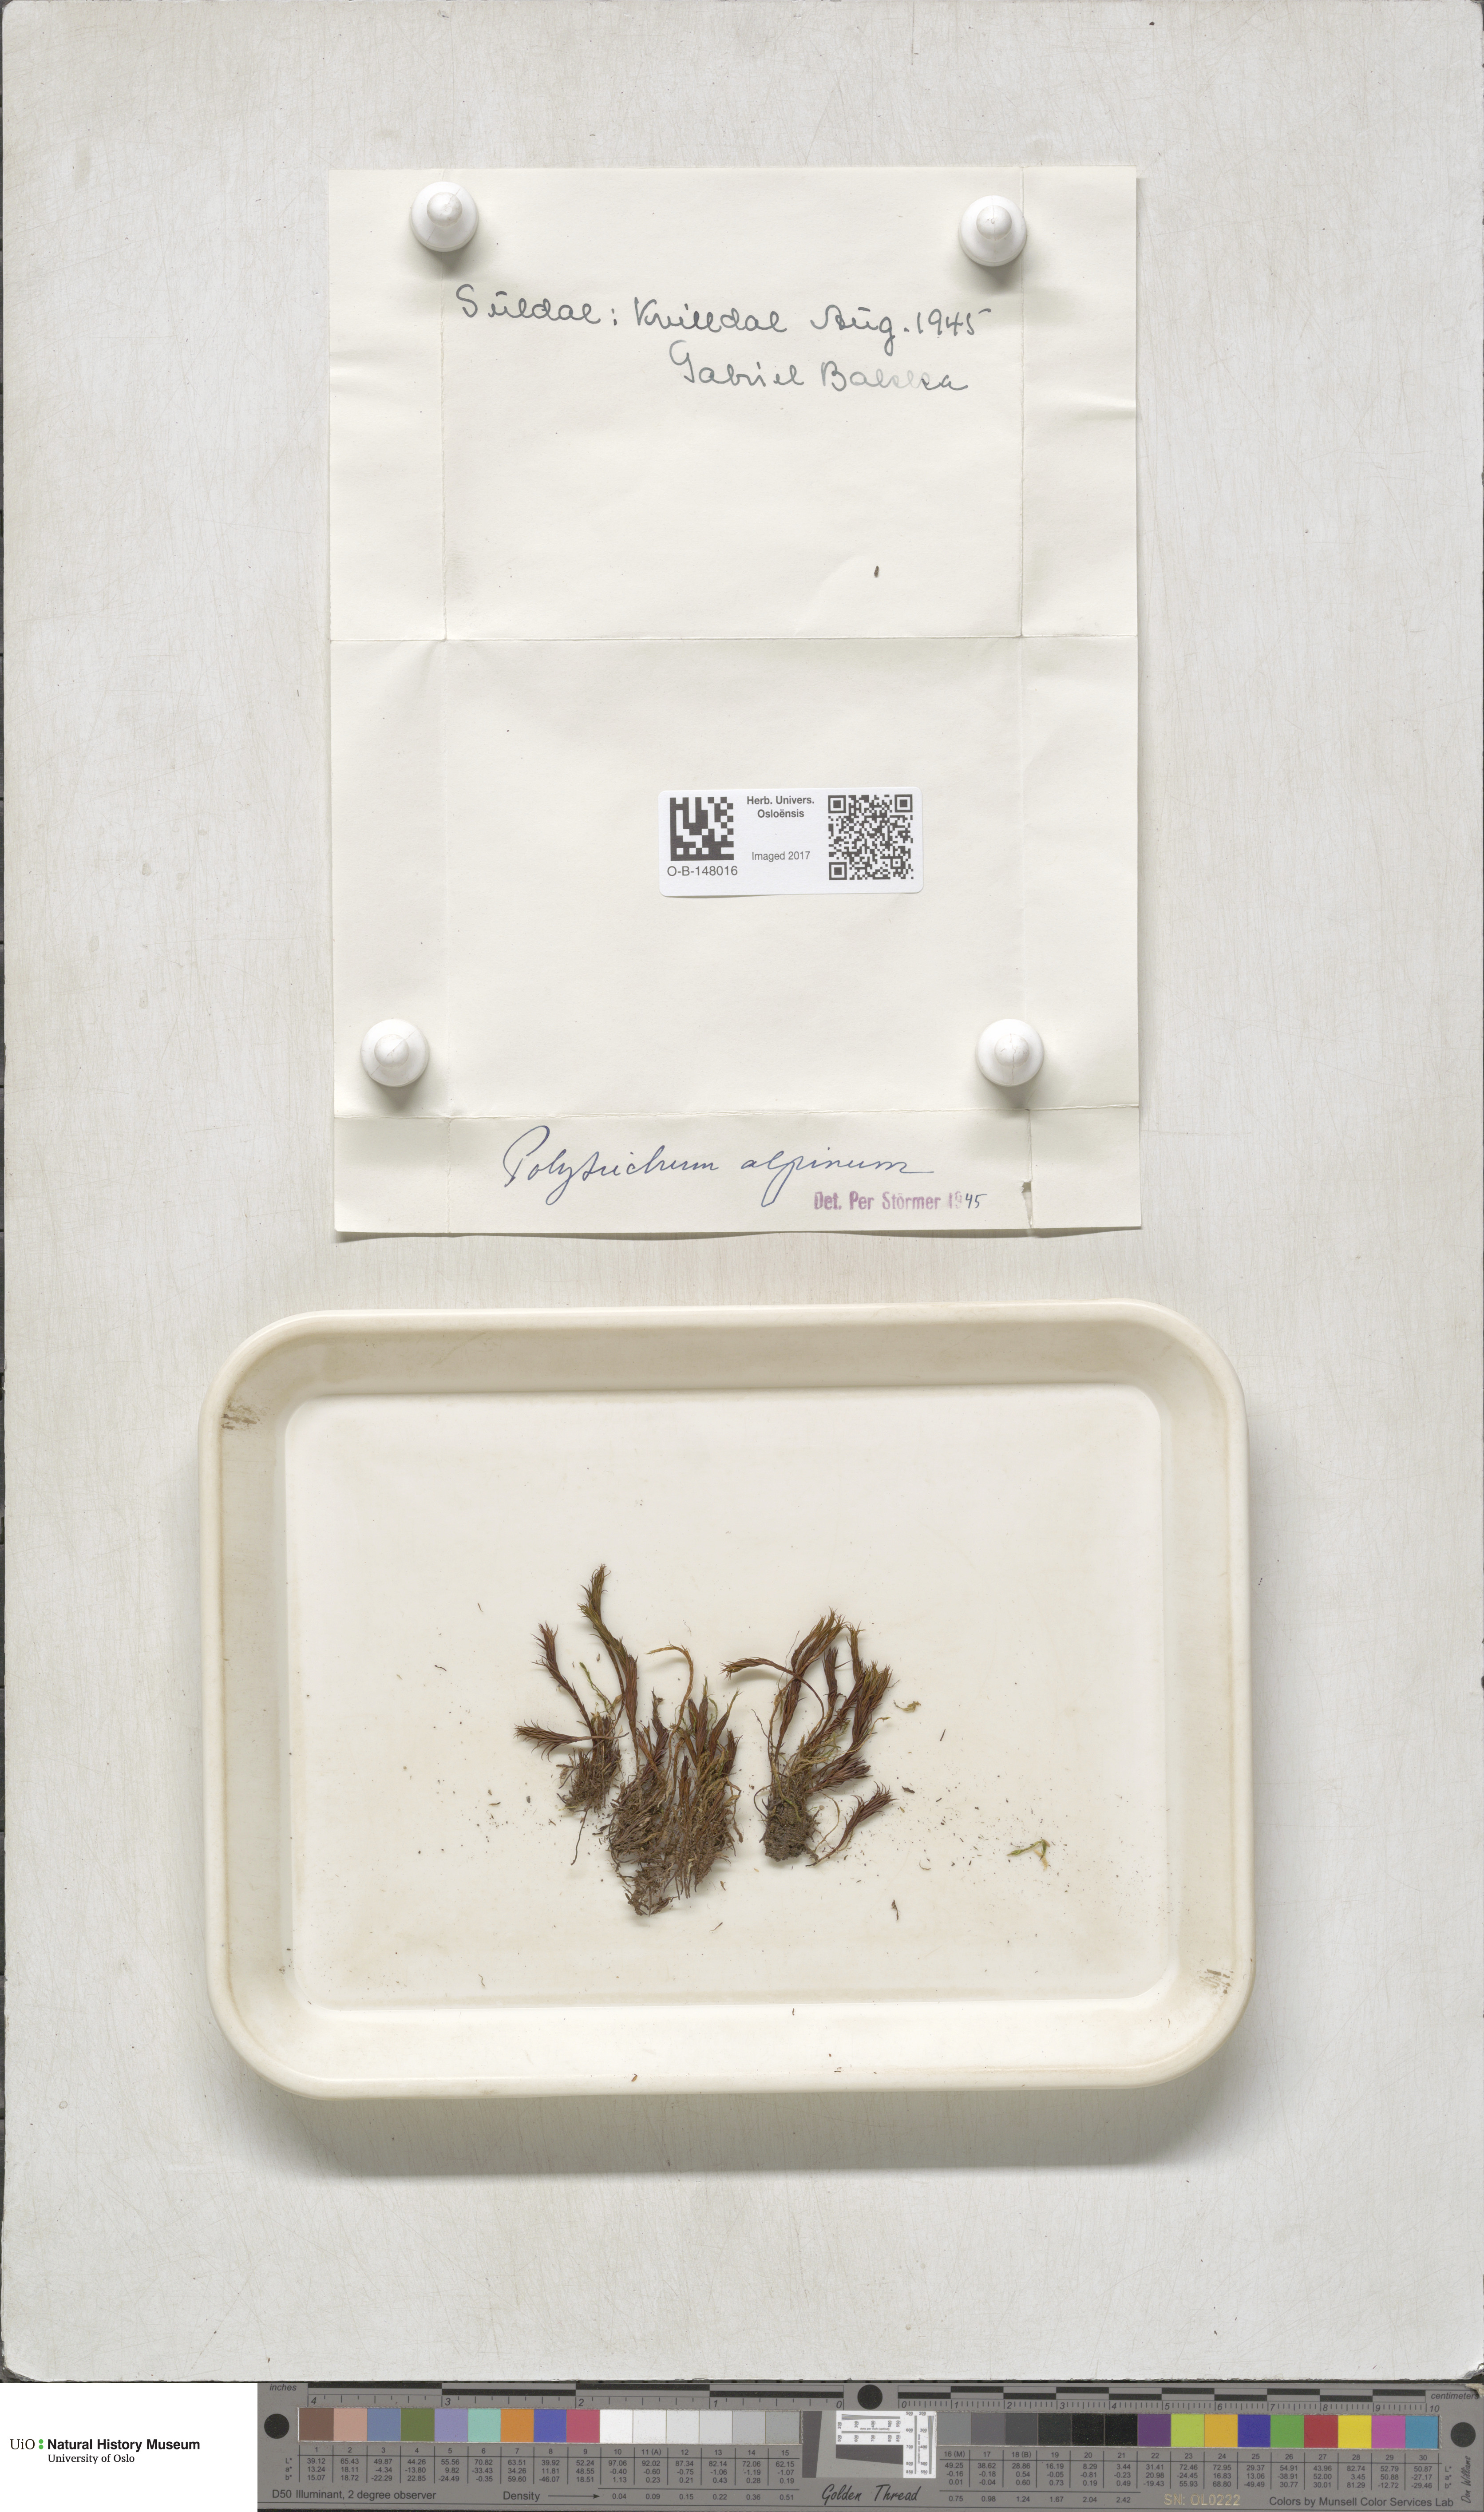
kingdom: Plantae
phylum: Bryophyta
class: Polytrichopsida
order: Polytrichales
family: Polytrichaceae
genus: Polytrichastrum
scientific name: Polytrichastrum alpinum
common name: Alpine haircap
